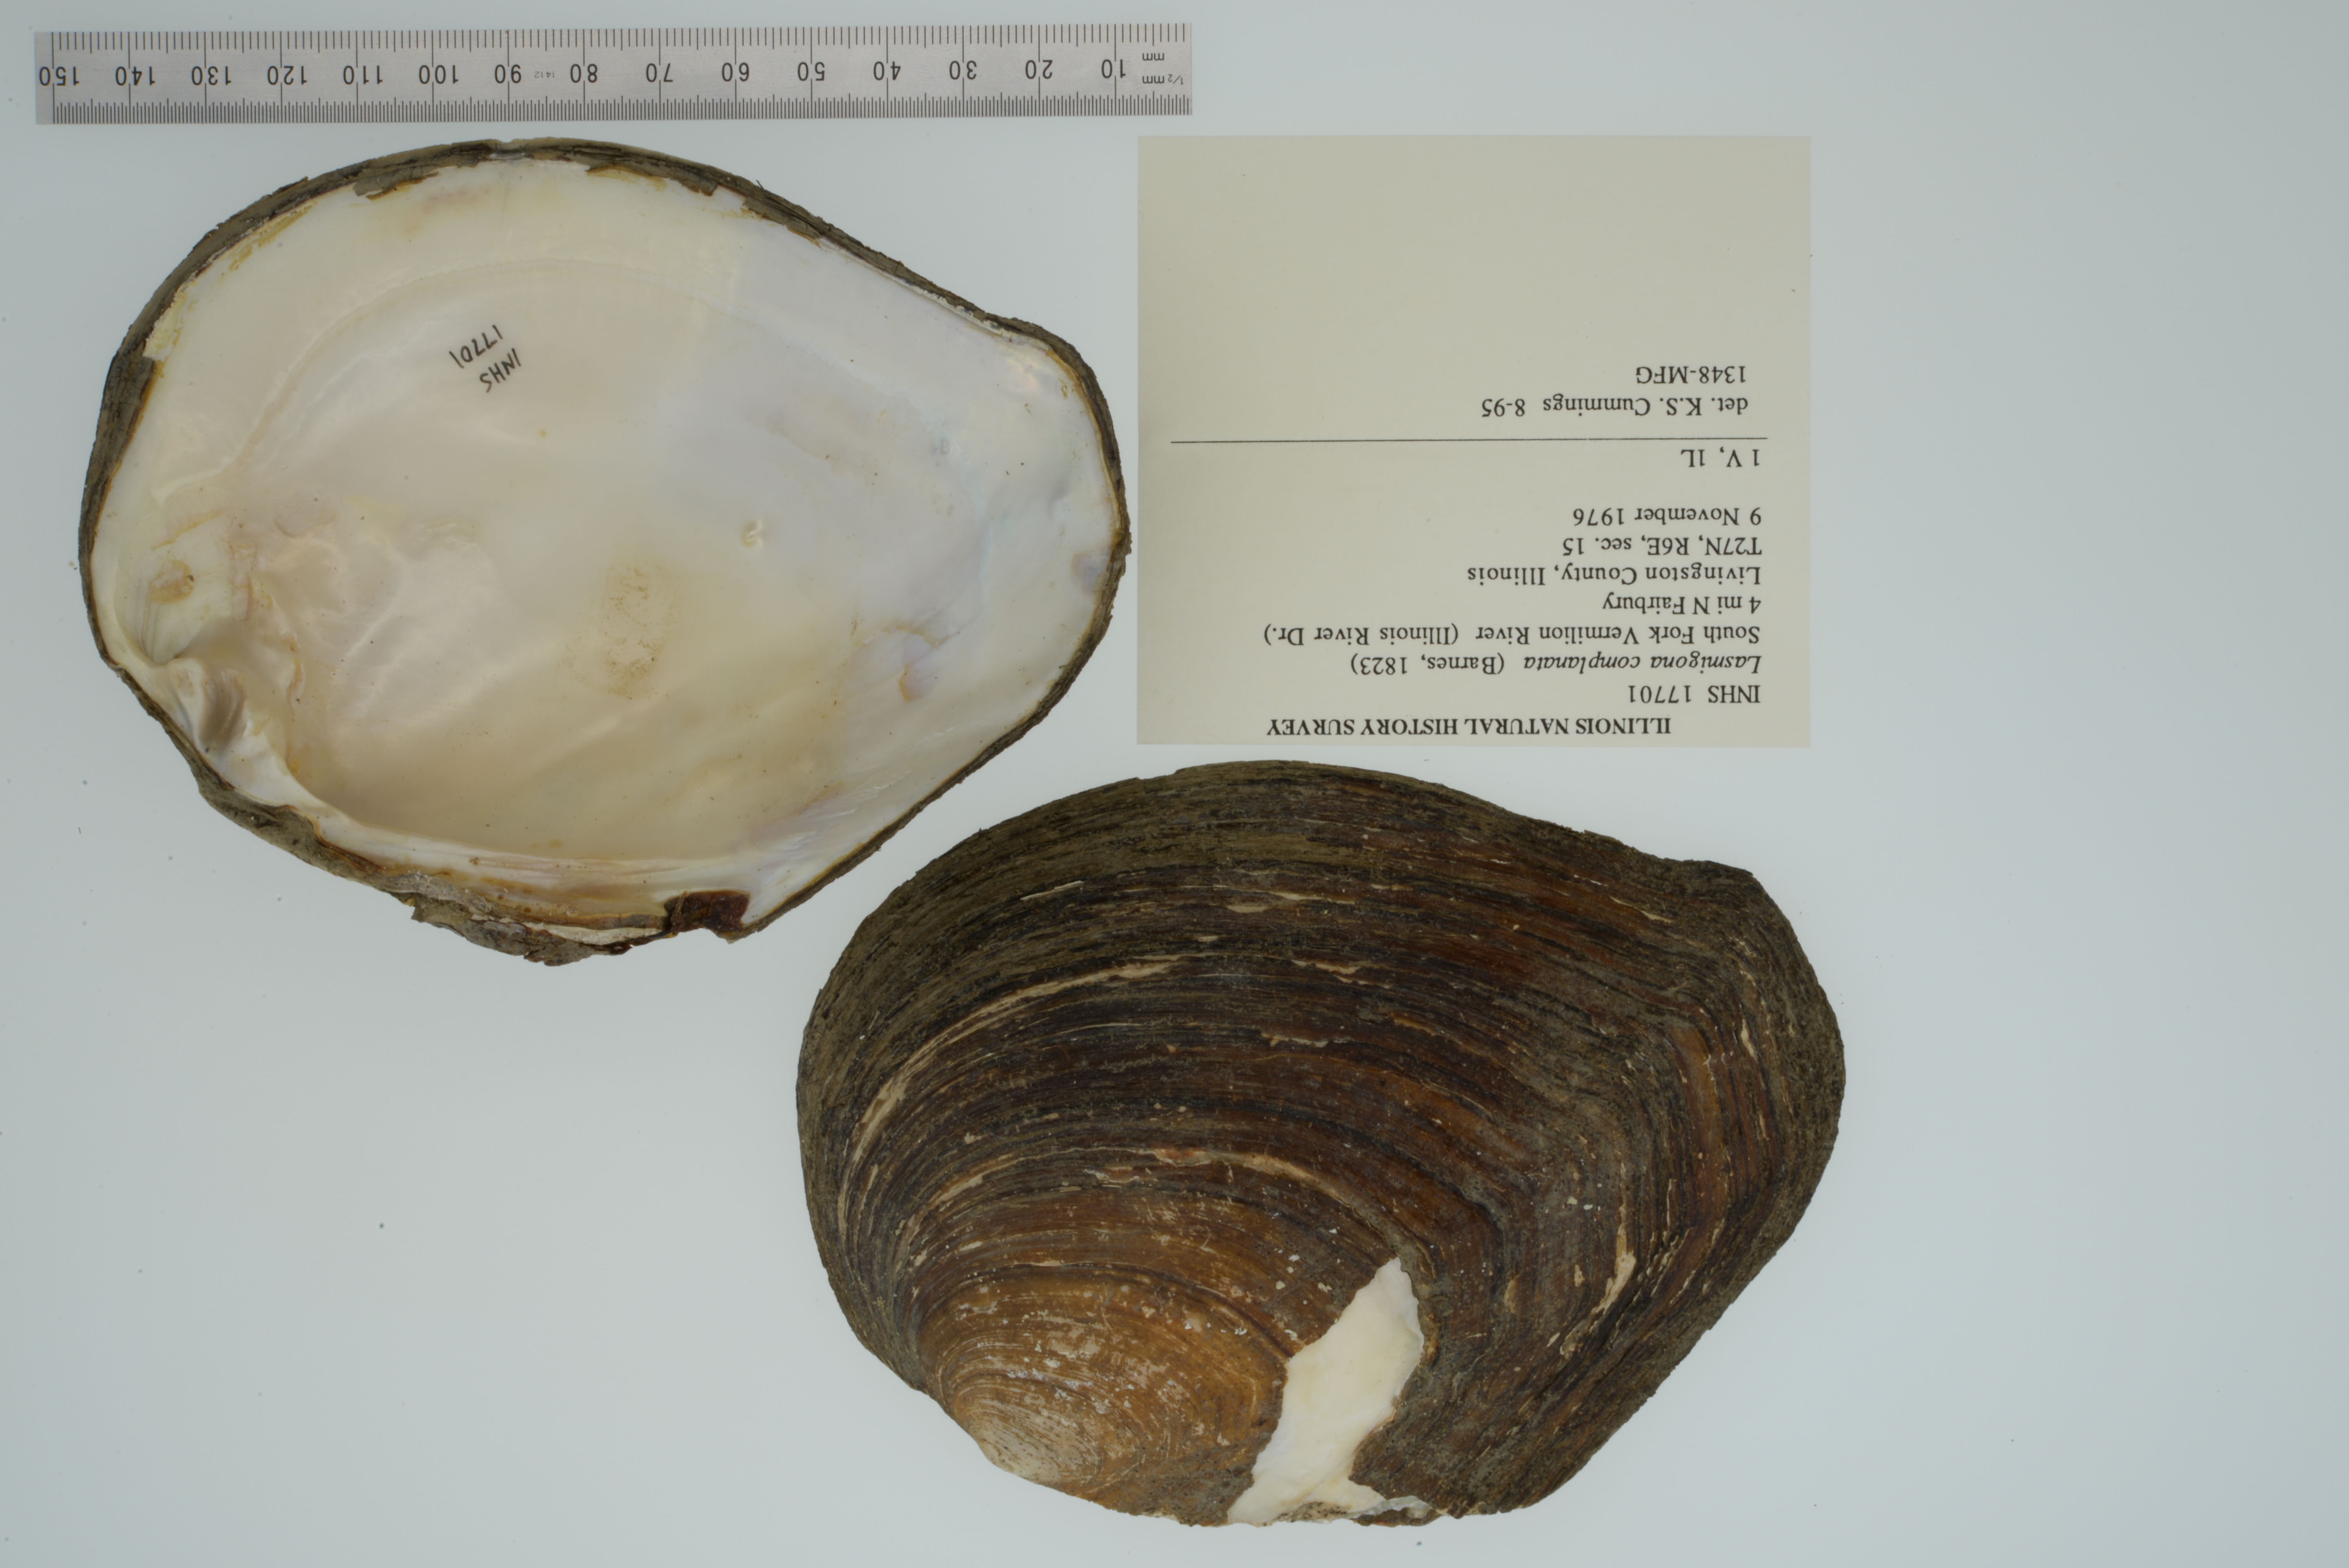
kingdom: Animalia
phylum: Mollusca
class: Bivalvia
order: Unionida
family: Unionidae
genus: Lasmigona
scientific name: Lasmigona complanata
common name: White heelsplitter
